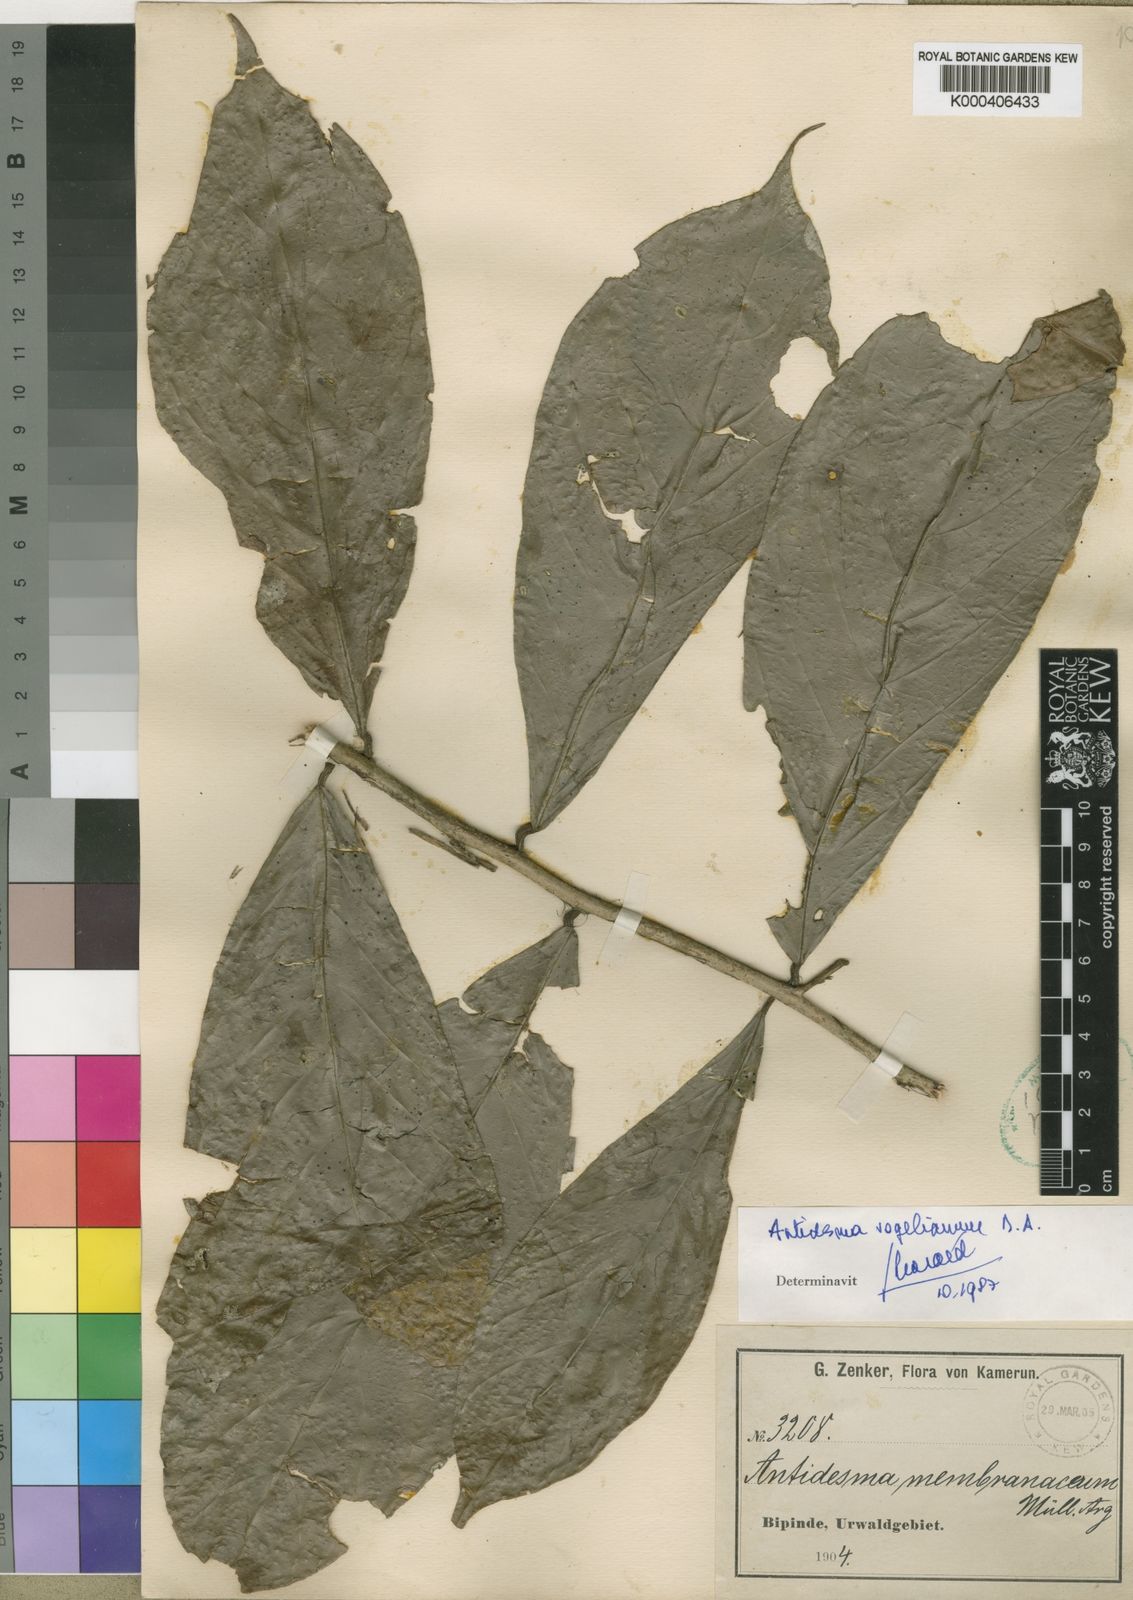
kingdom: Plantae
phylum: Tracheophyta
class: Magnoliopsida
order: Malpighiales
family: Phyllanthaceae
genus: Antidesma
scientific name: Antidesma vogelianum
